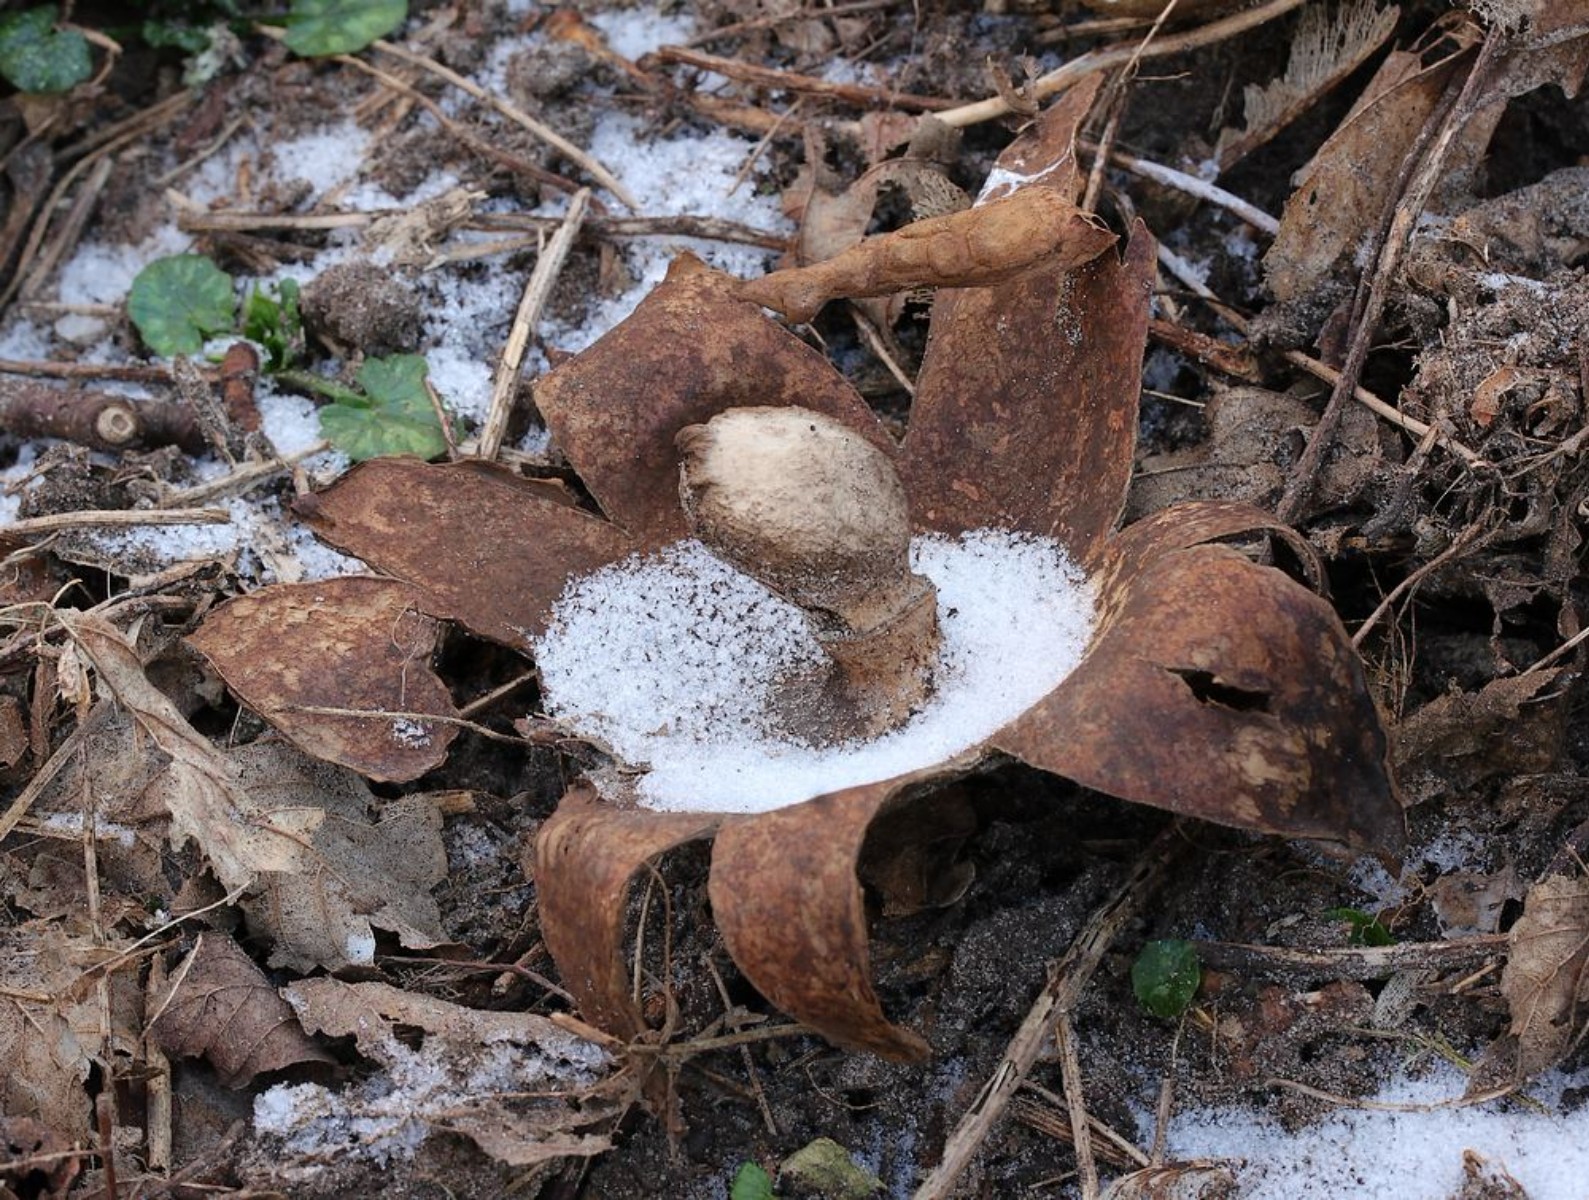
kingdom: Fungi
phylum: Basidiomycota
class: Agaricomycetes
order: Geastrales
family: Geastraceae
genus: Geastrum
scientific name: Geastrum melanocephalum
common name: håret stjernebold
